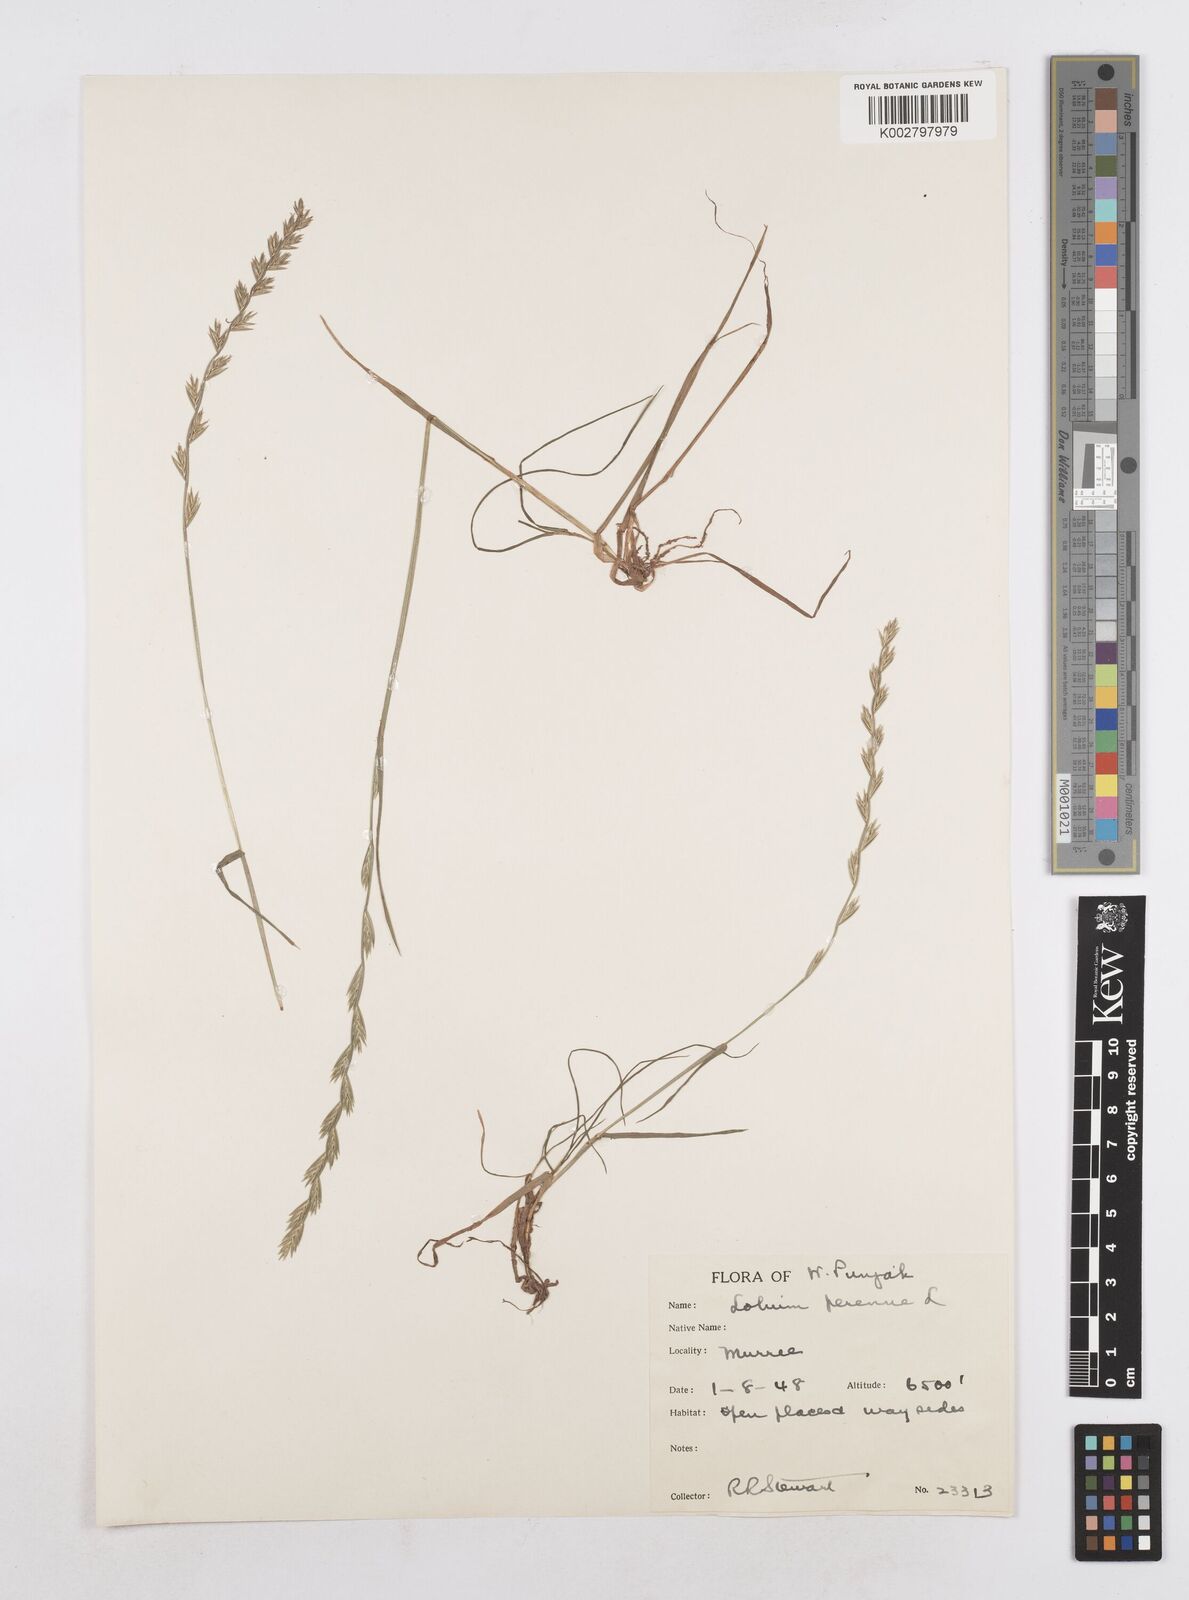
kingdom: Plantae
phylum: Tracheophyta
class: Liliopsida
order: Poales
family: Poaceae
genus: Lolium
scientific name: Lolium perenne
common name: Perennial ryegrass
